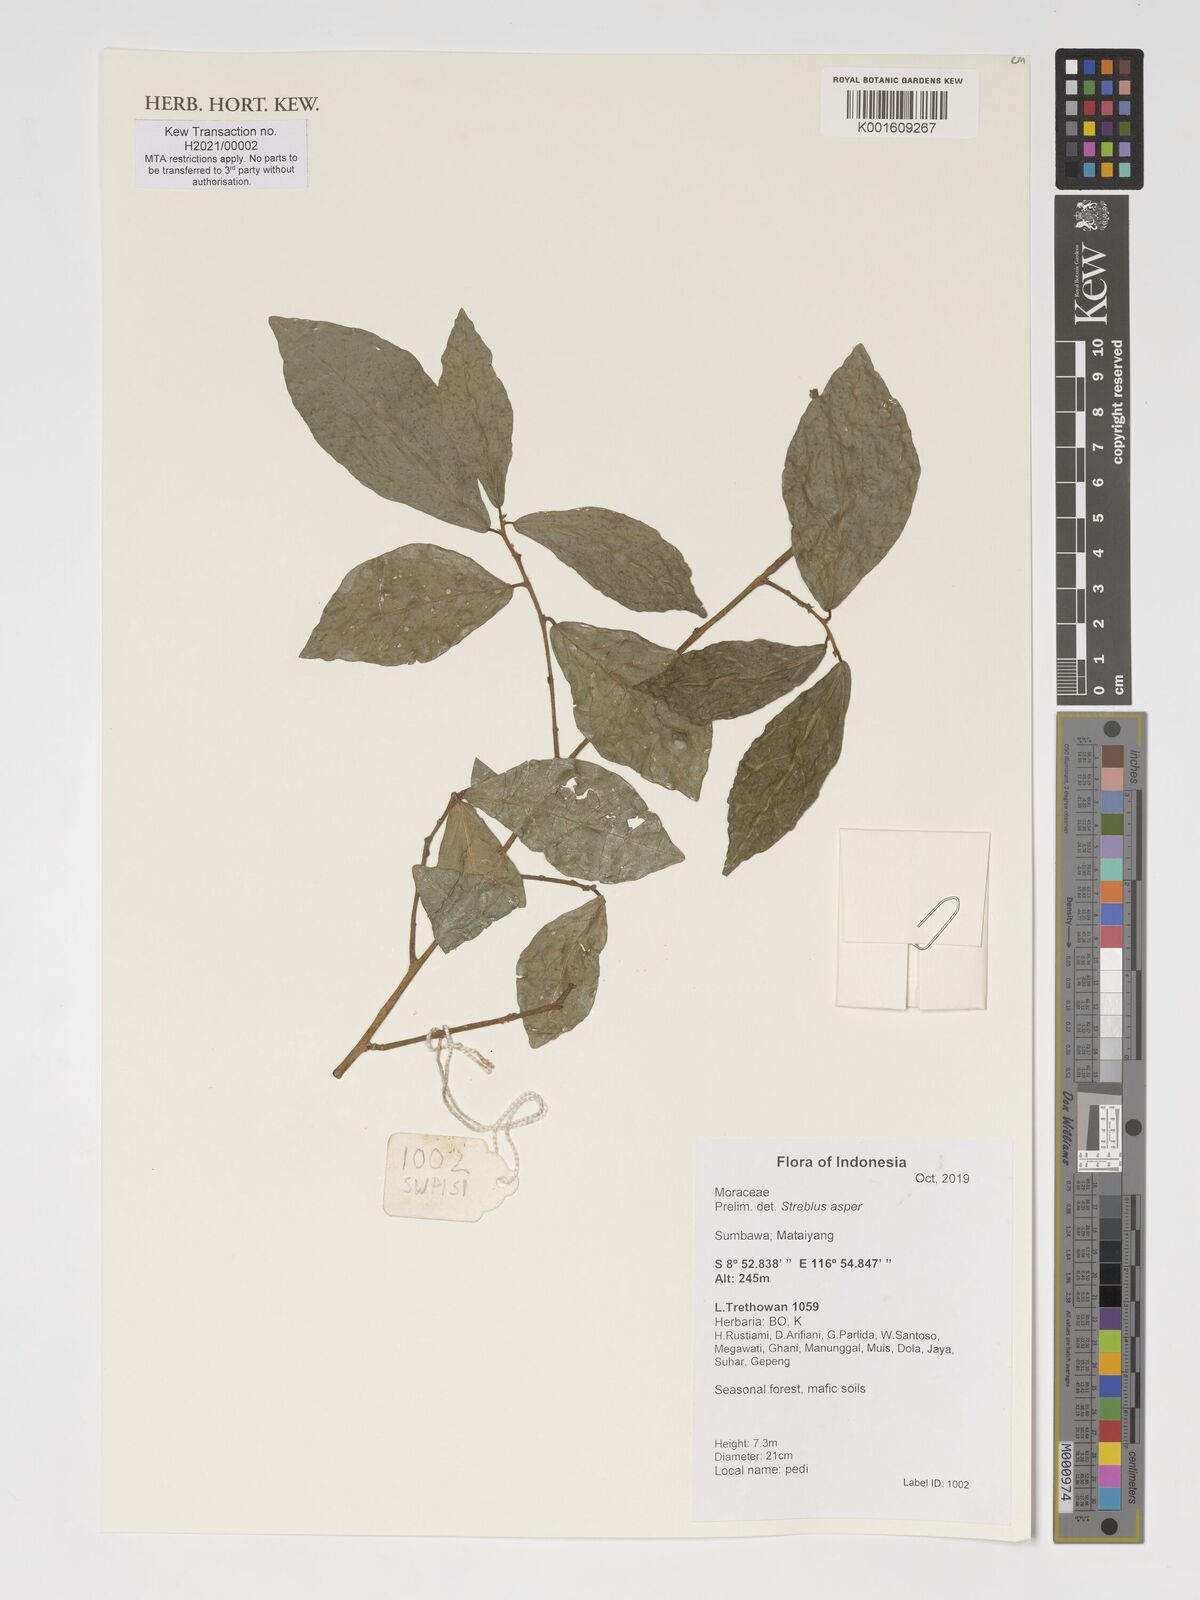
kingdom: Plantae
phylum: Tracheophyta
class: Magnoliopsida
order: Rosales
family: Moraceae
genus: Streblus
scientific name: Streblus asper
